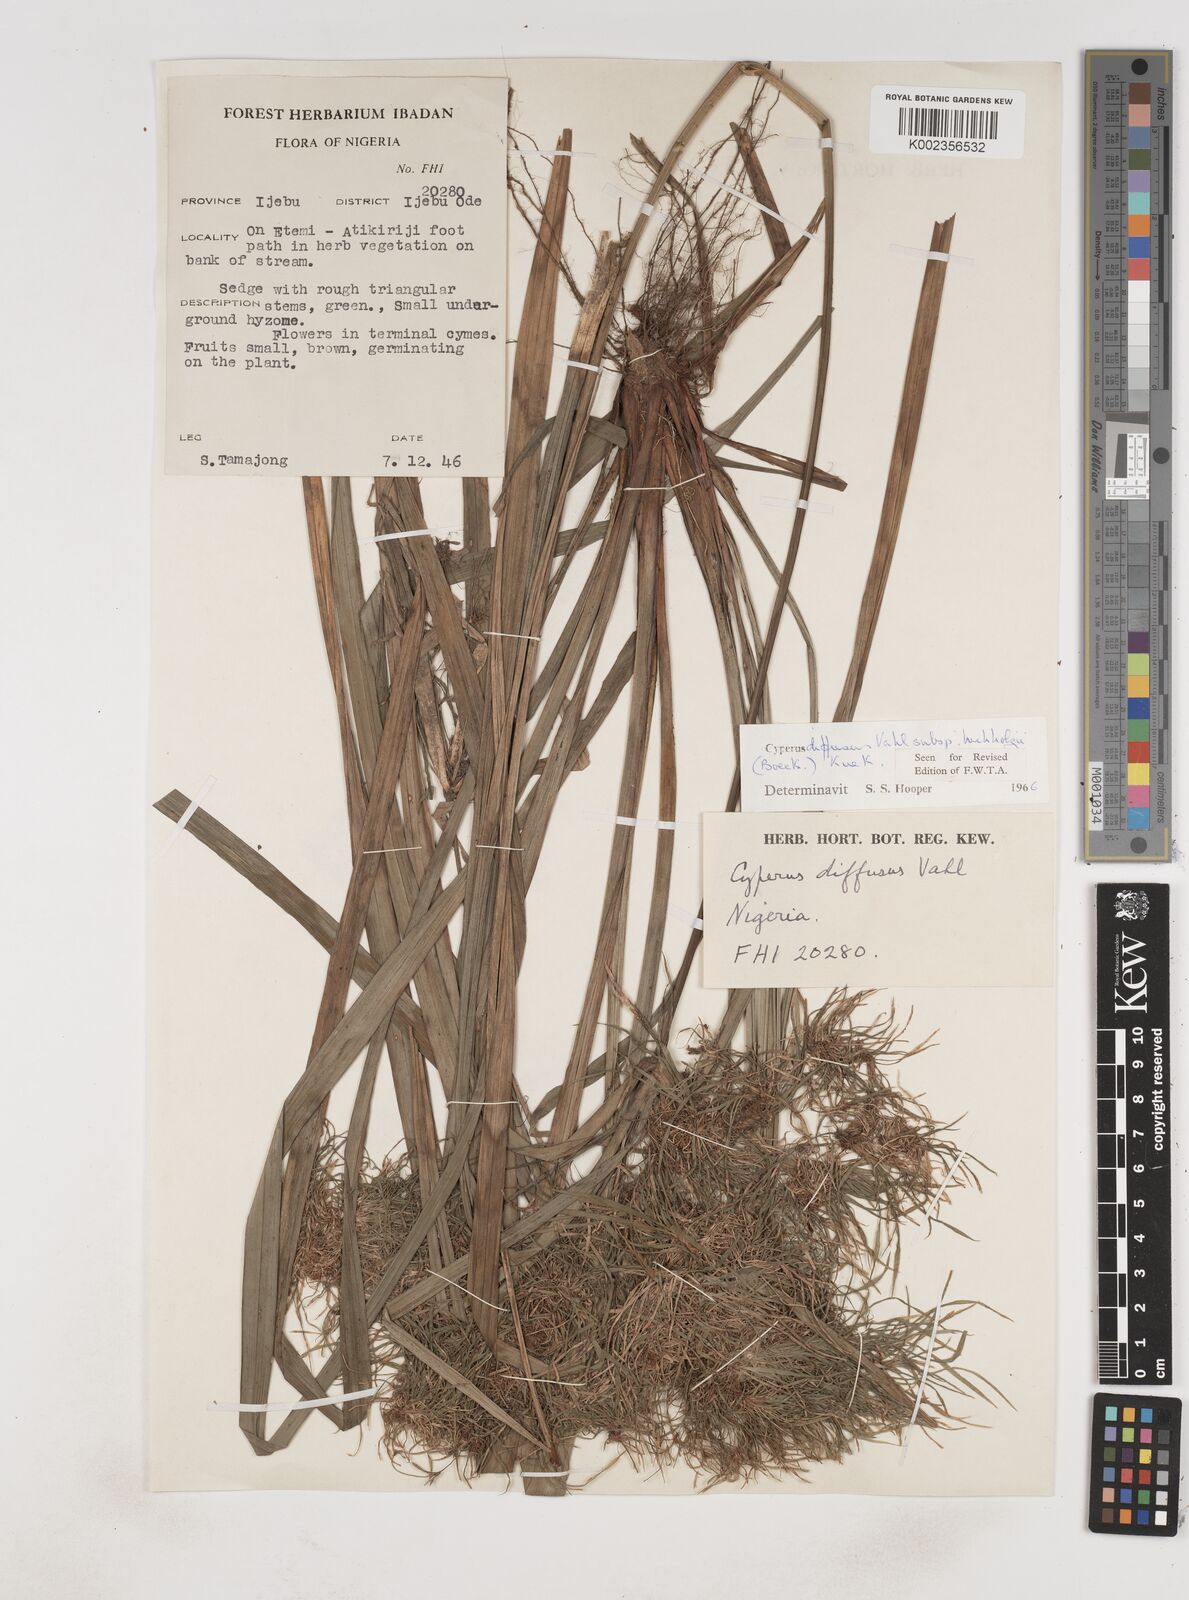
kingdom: Plantae
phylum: Tracheophyta
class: Liliopsida
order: Poales
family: Cyperaceae
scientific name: Cyperaceae
